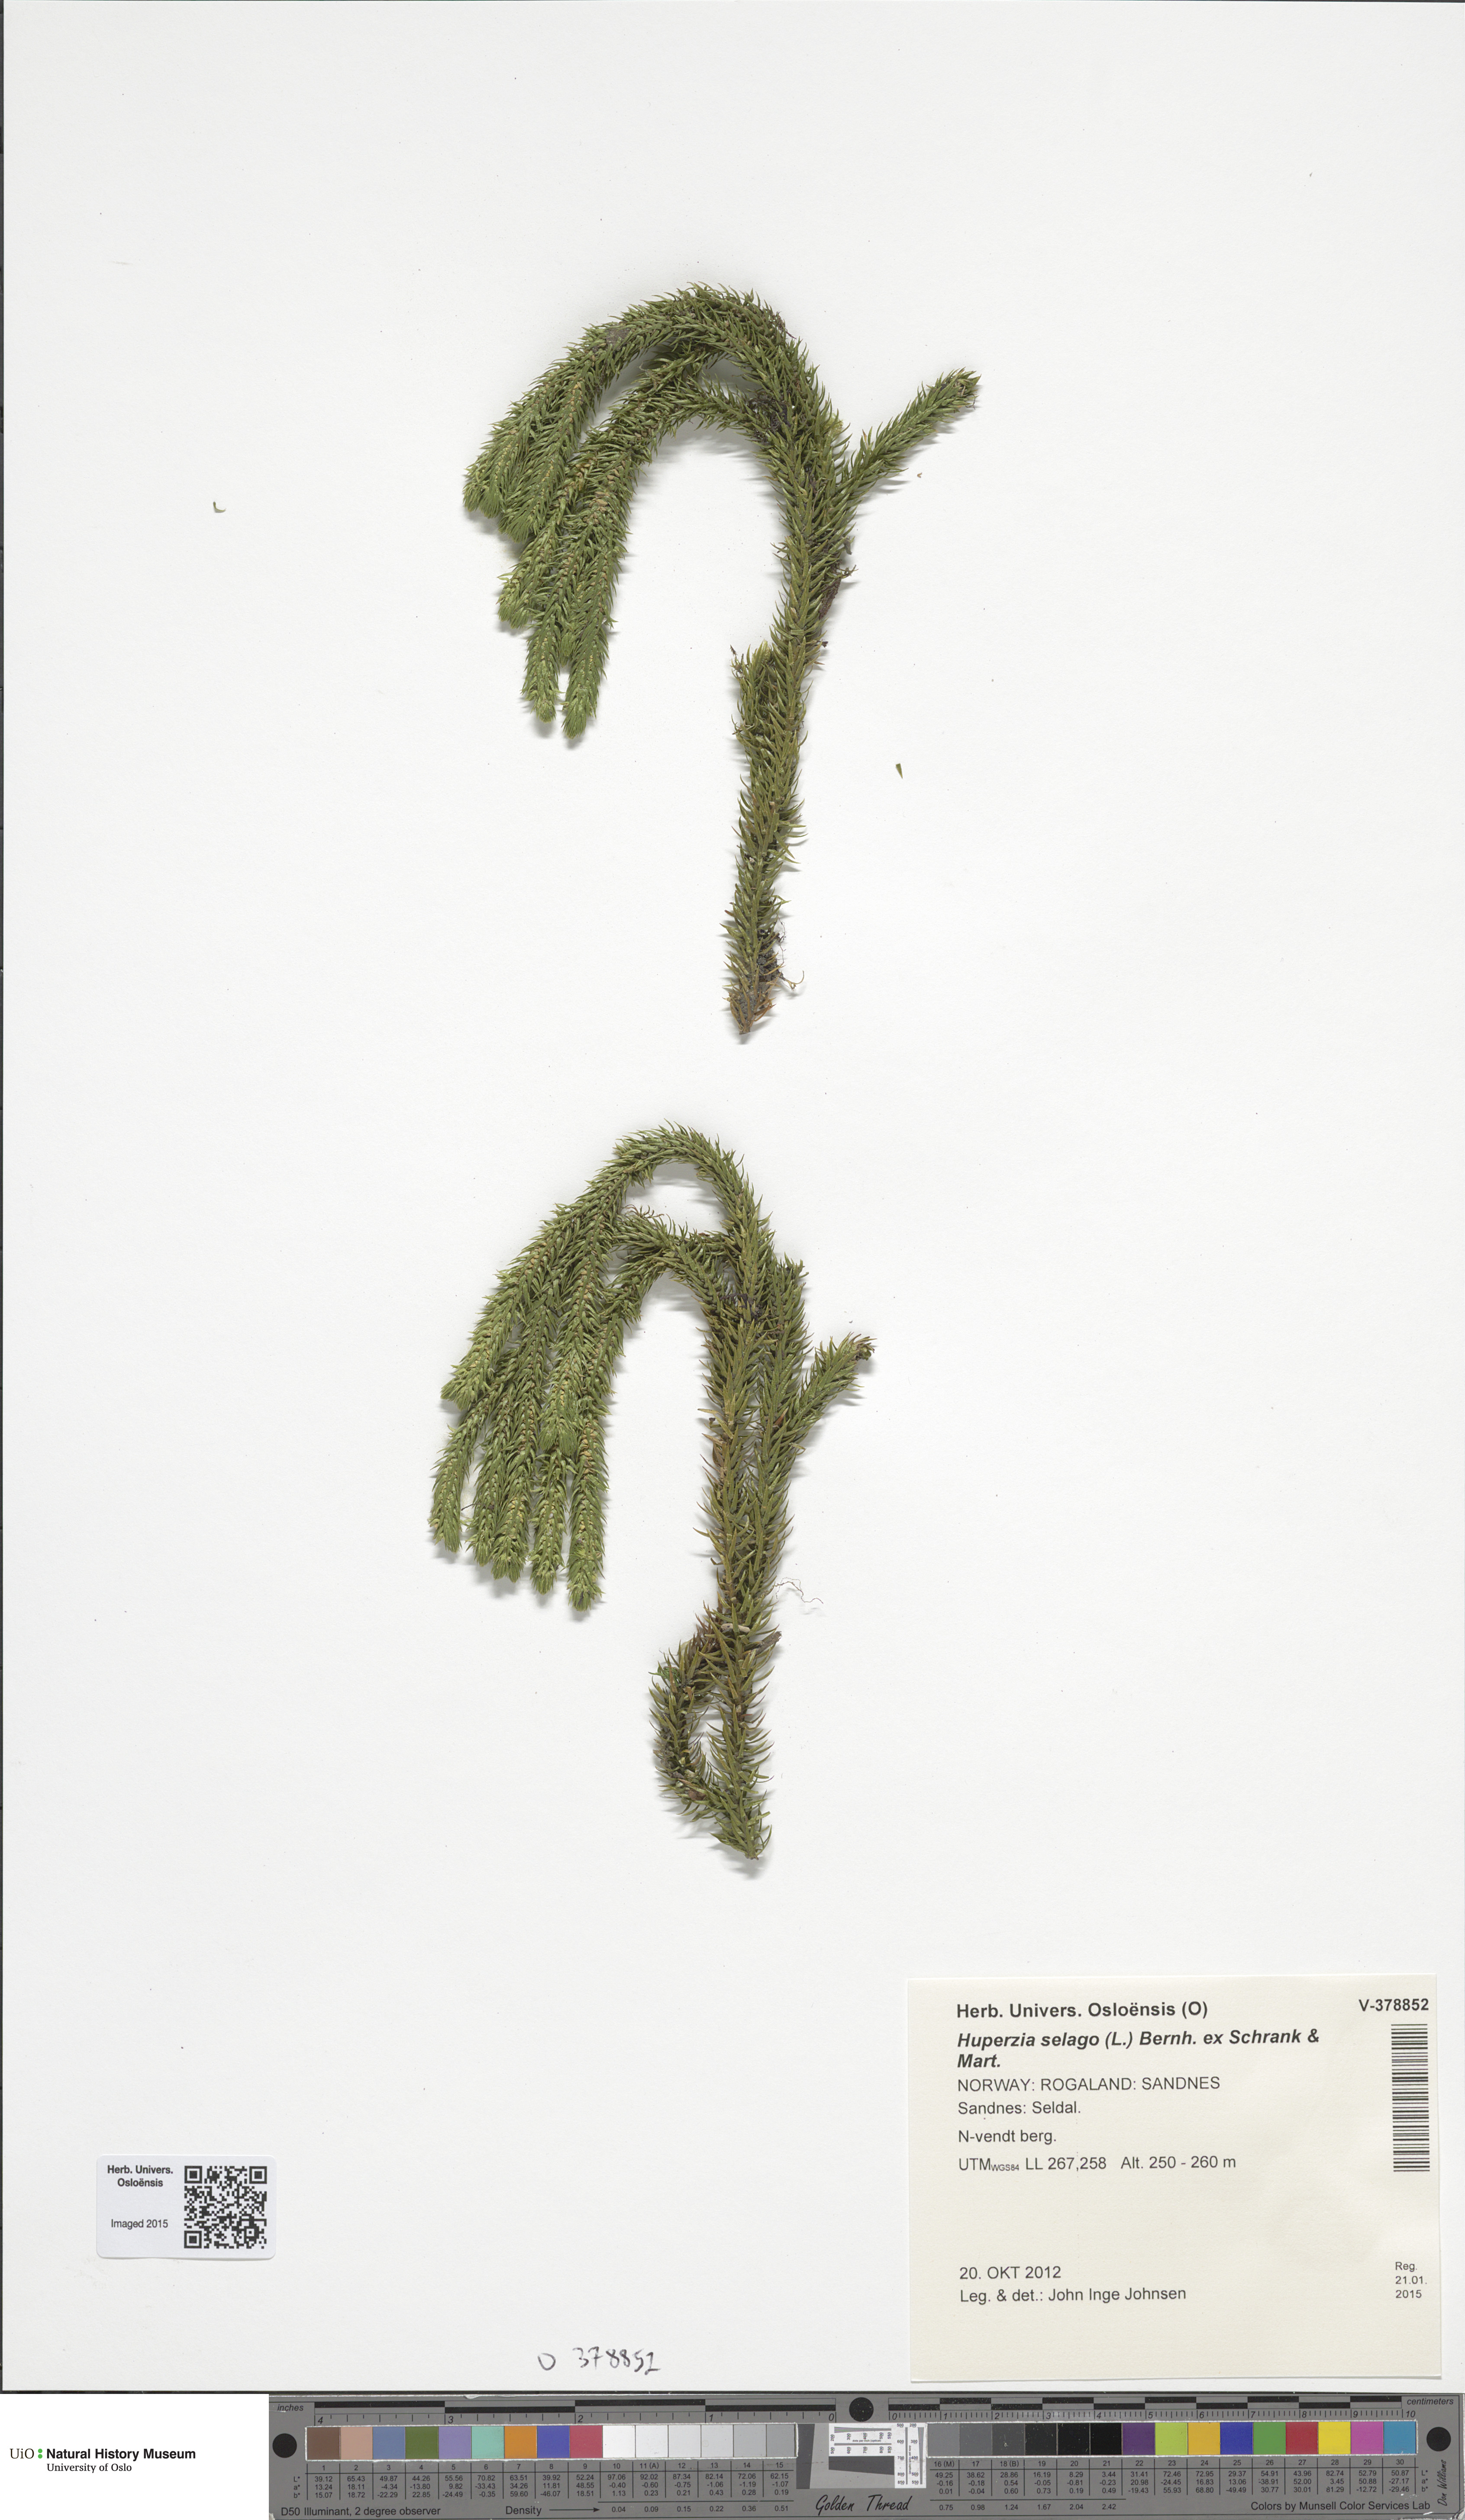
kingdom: Plantae
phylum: Tracheophyta
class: Lycopodiopsida
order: Lycopodiales
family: Lycopodiaceae
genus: Huperzia
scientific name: Huperzia selago
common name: Northern firmoss
